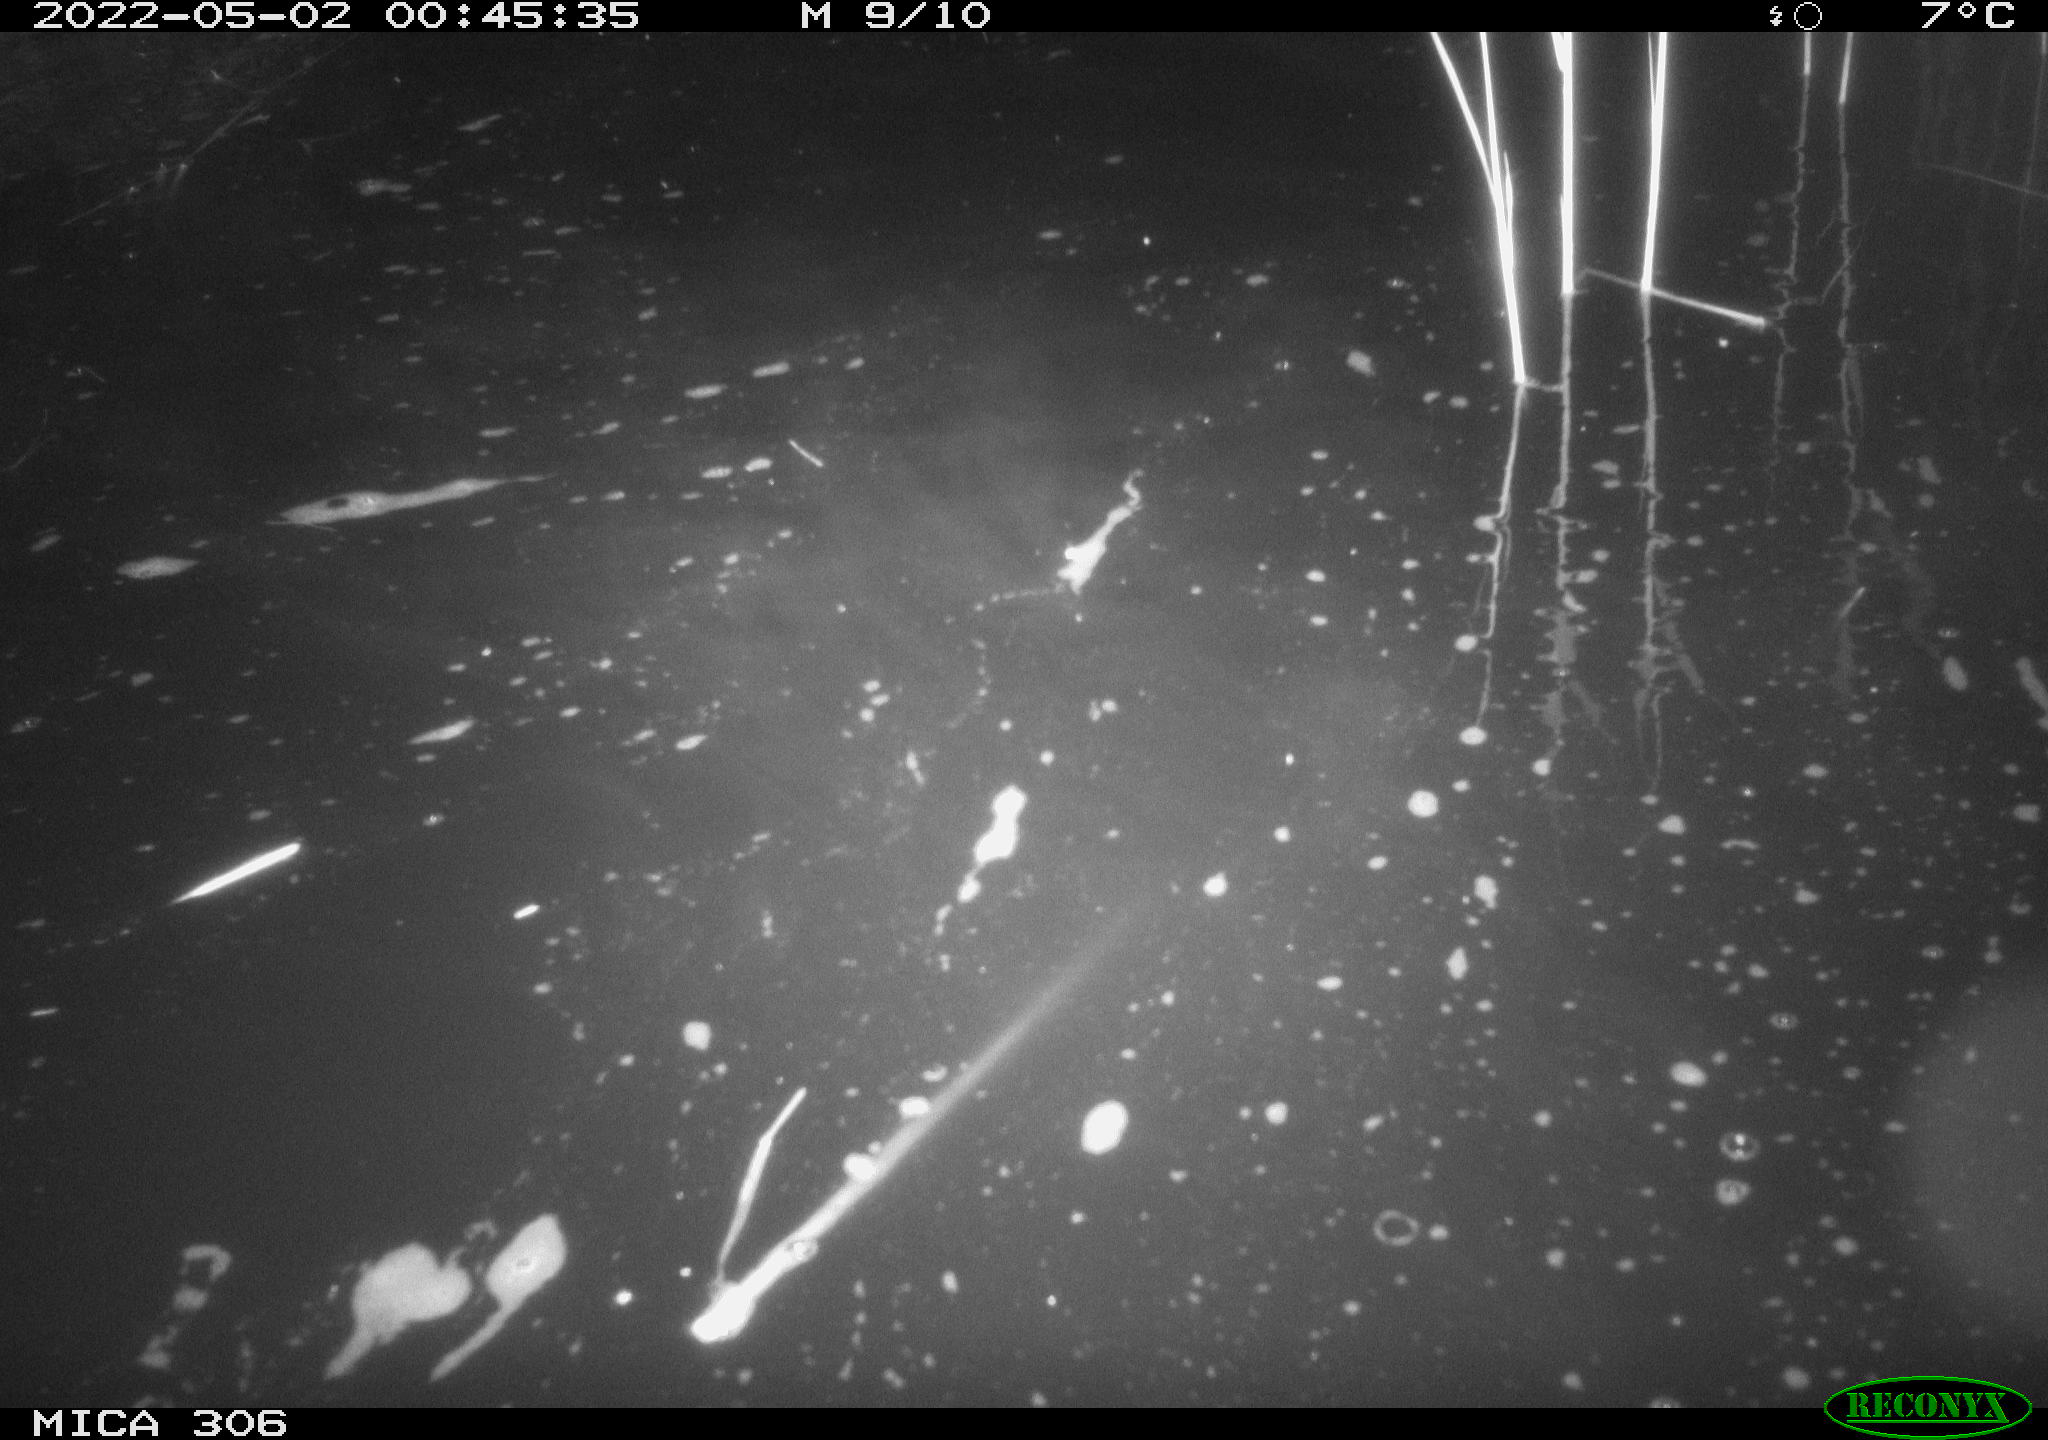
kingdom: Animalia
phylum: Chordata
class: Mammalia
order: Rodentia
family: Cricetidae
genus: Ondatra
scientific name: Ondatra zibethicus
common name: Muskrat
